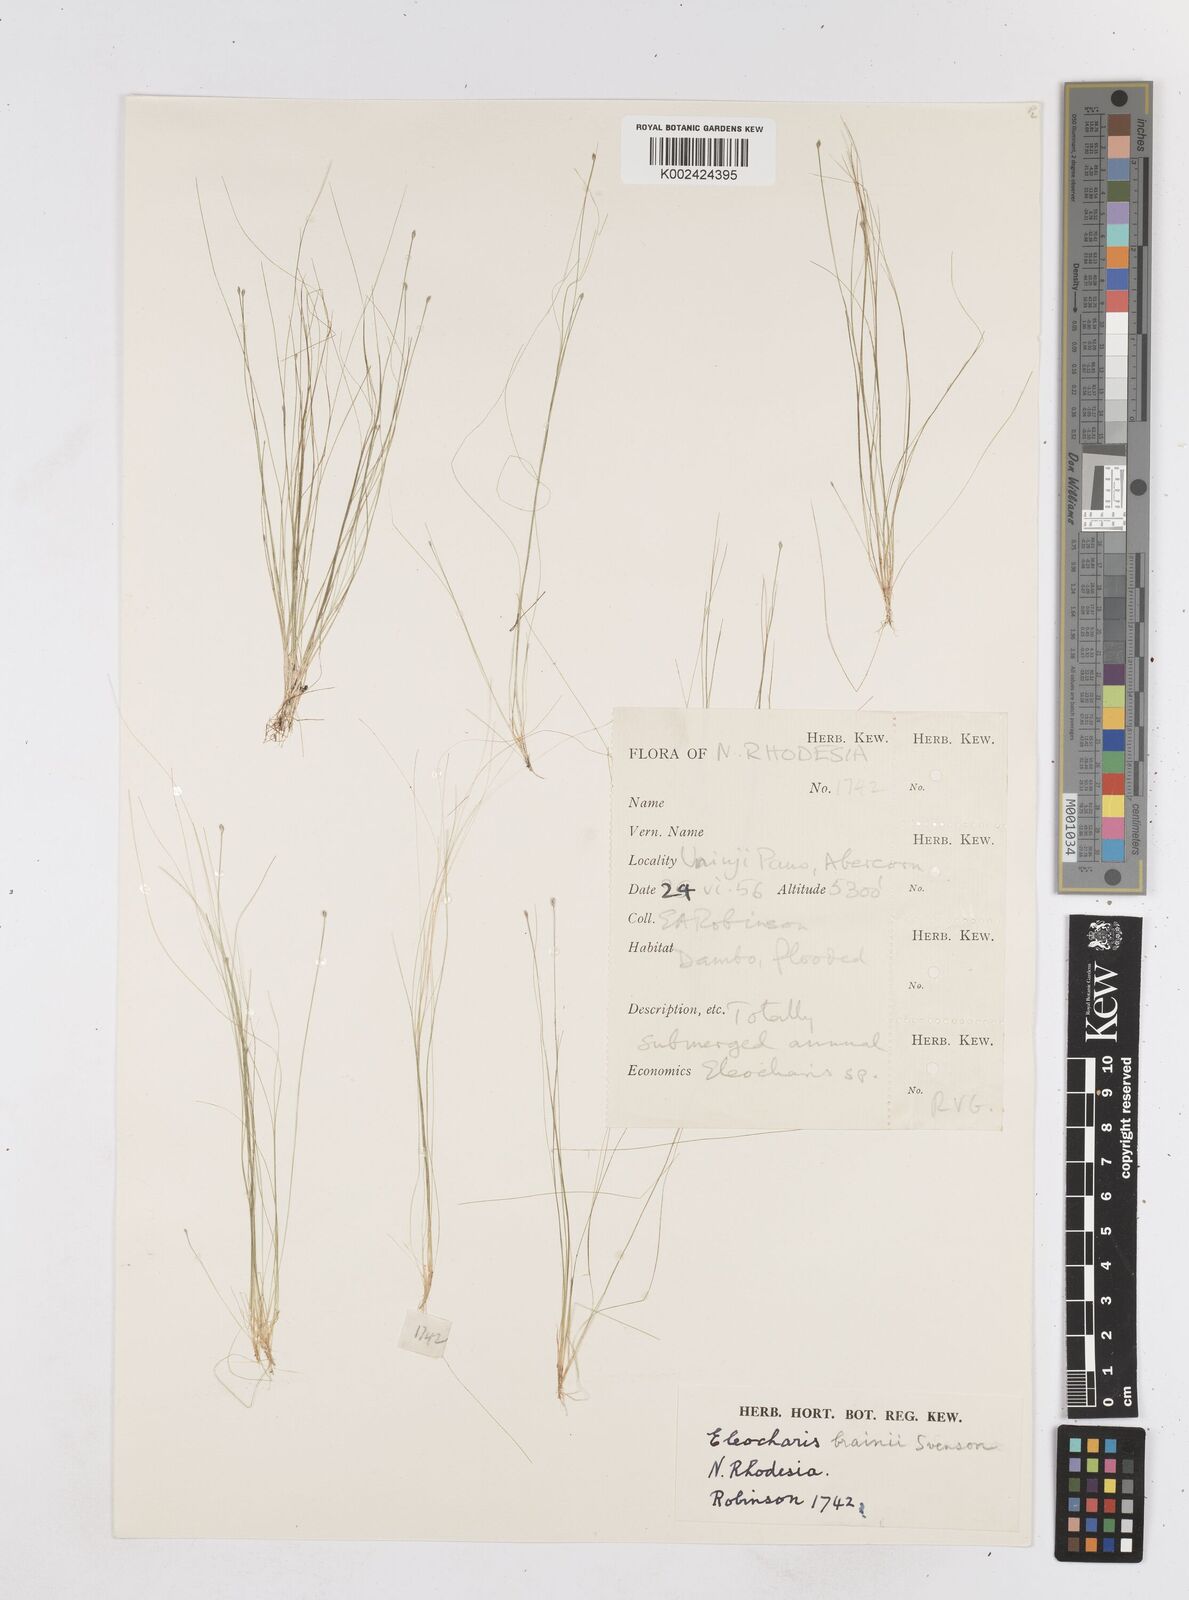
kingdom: Plantae
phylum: Tracheophyta
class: Liliopsida
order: Poales
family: Cyperaceae
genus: Eleocharis
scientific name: Eleocharis brainii
